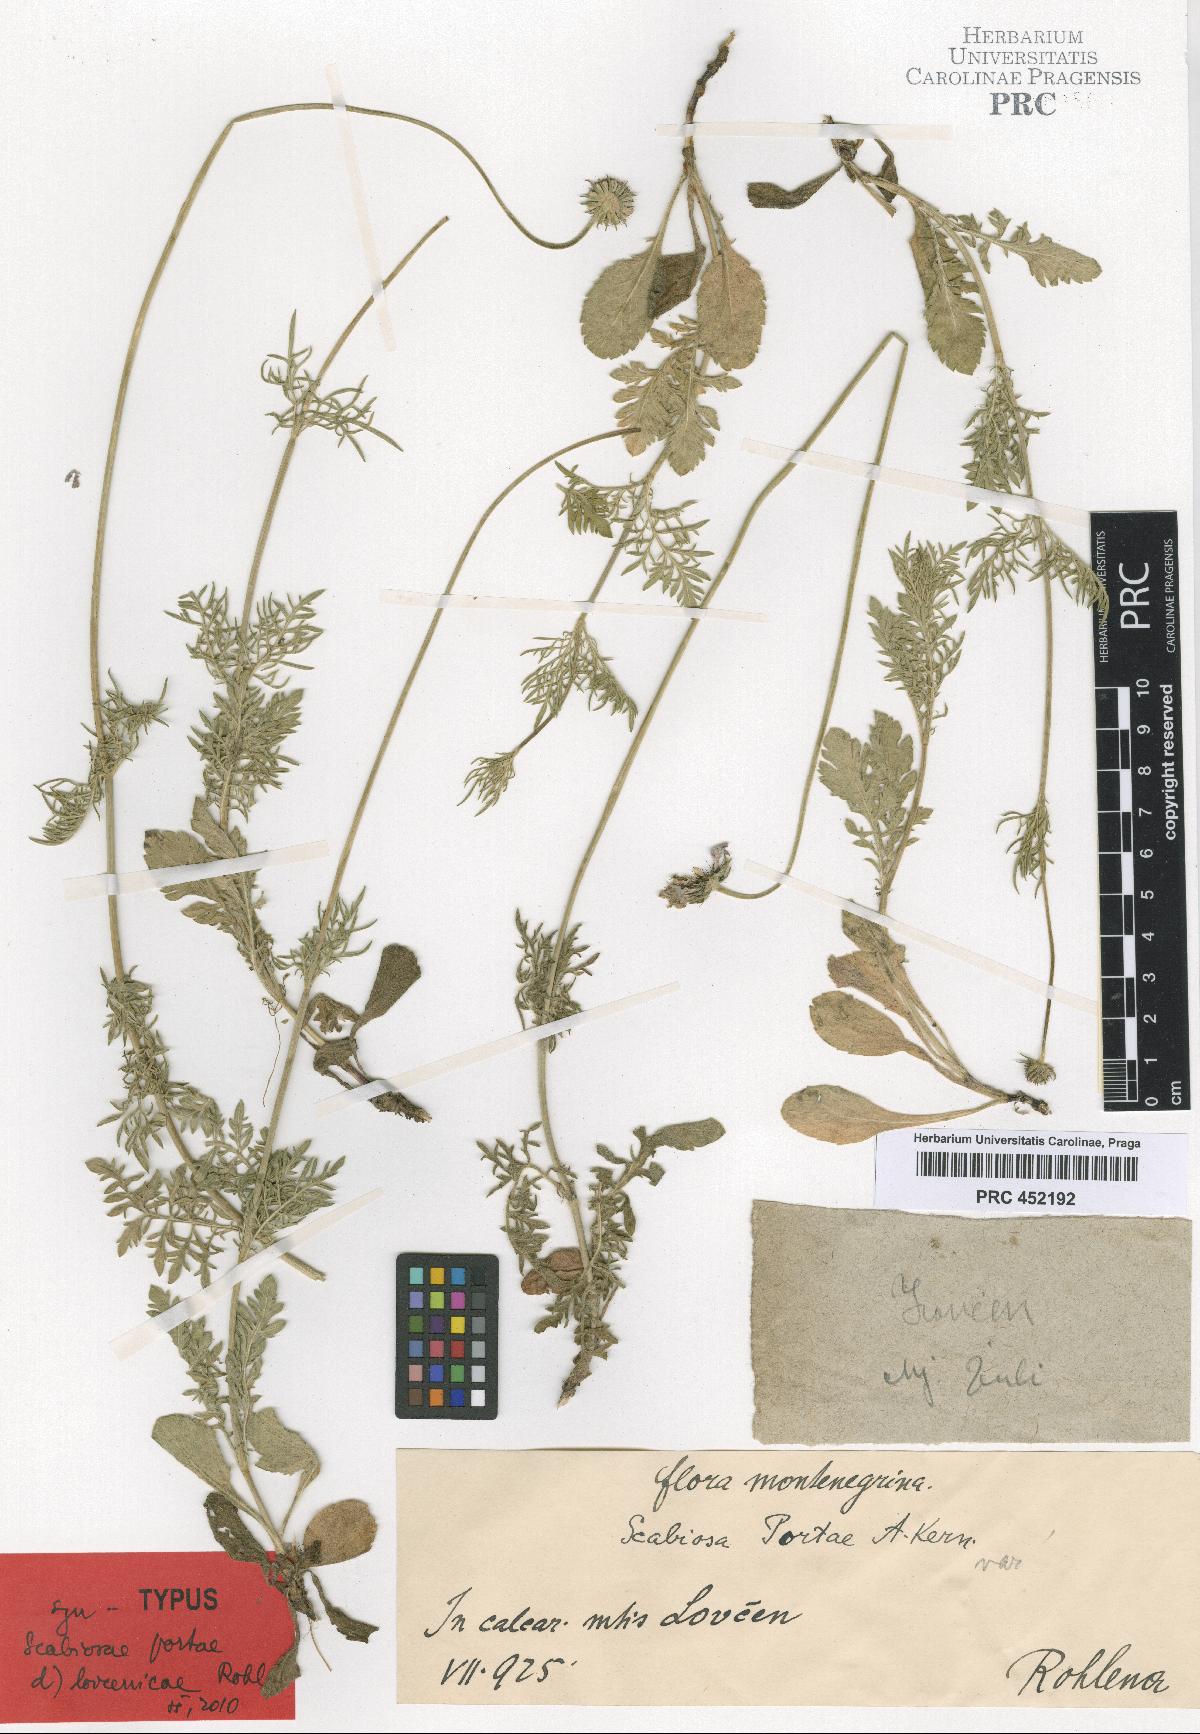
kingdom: Plantae
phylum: Tracheophyta
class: Magnoliopsida
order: Dipsacales
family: Caprifoliaceae
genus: Scabiosa
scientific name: Scabiosa taygetea
